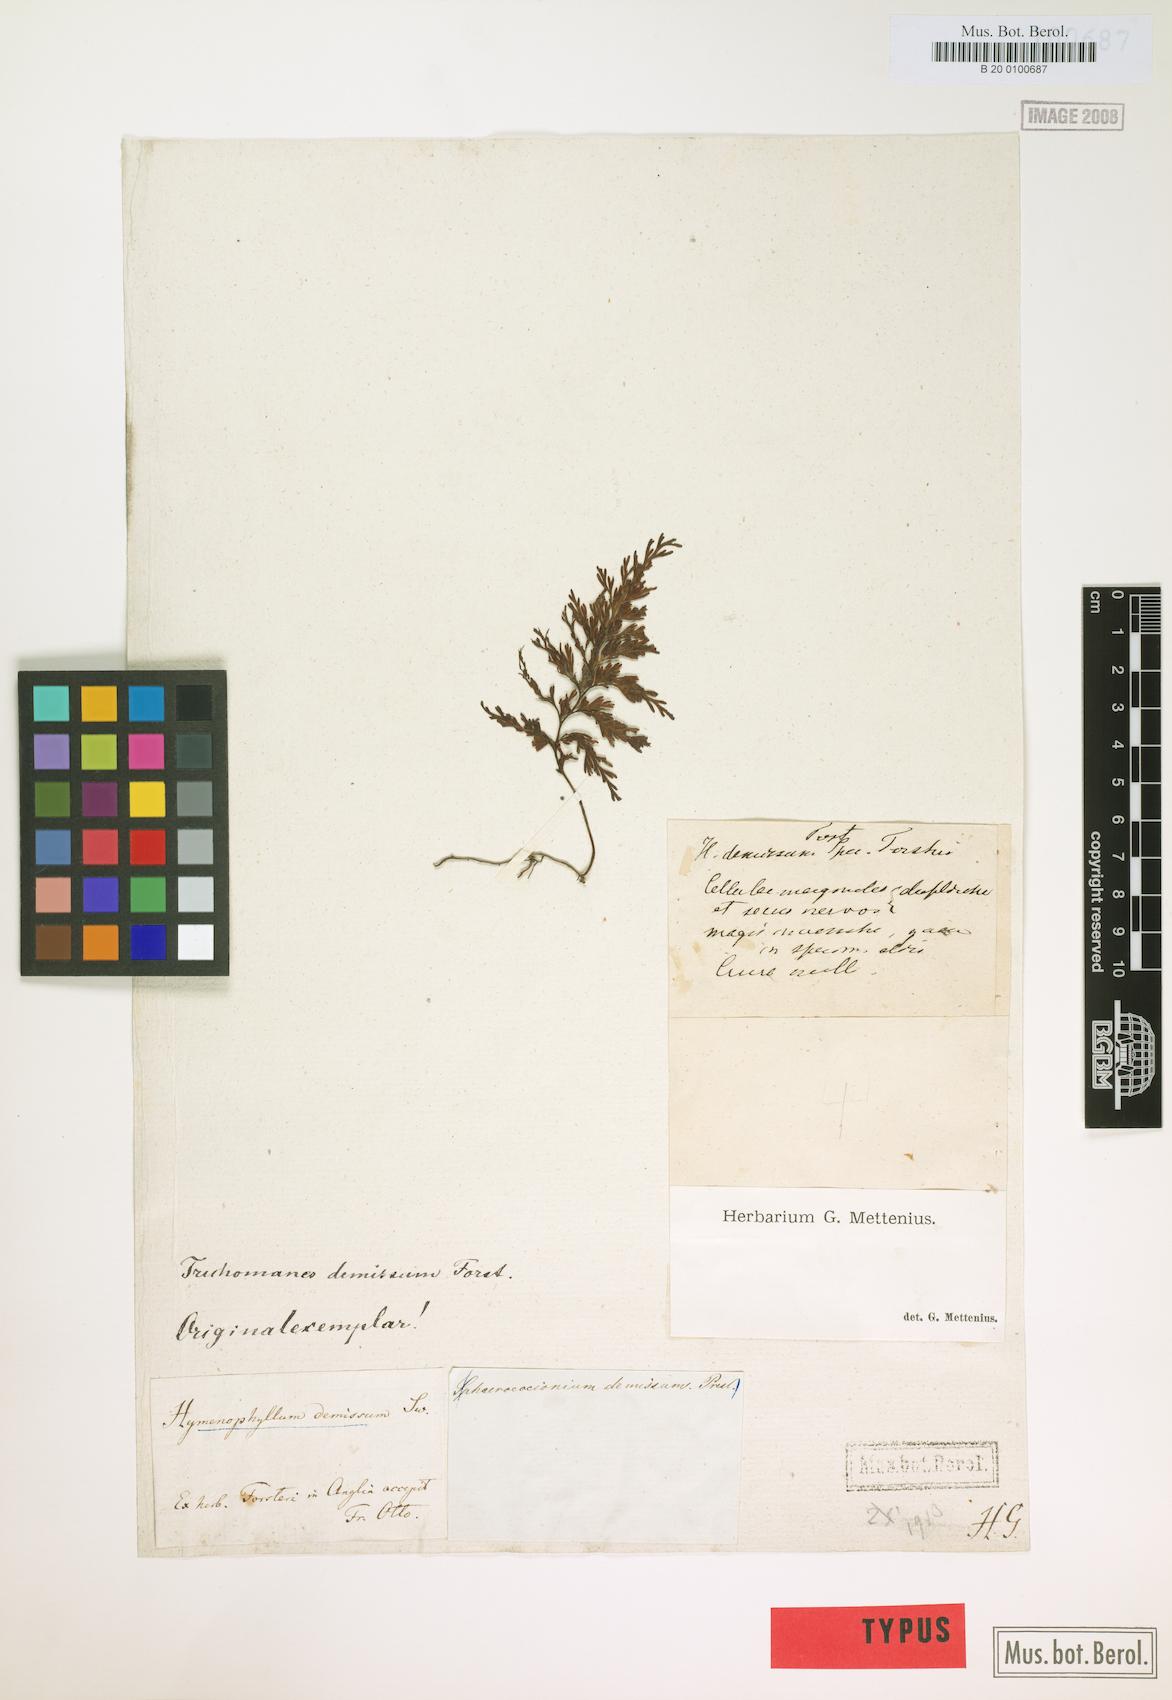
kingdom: Plantae
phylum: Tracheophyta
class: Polypodiopsida
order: Hymenophyllales
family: Hymenophyllaceae
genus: Hymenophyllum
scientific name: Hymenophyllum demissum
